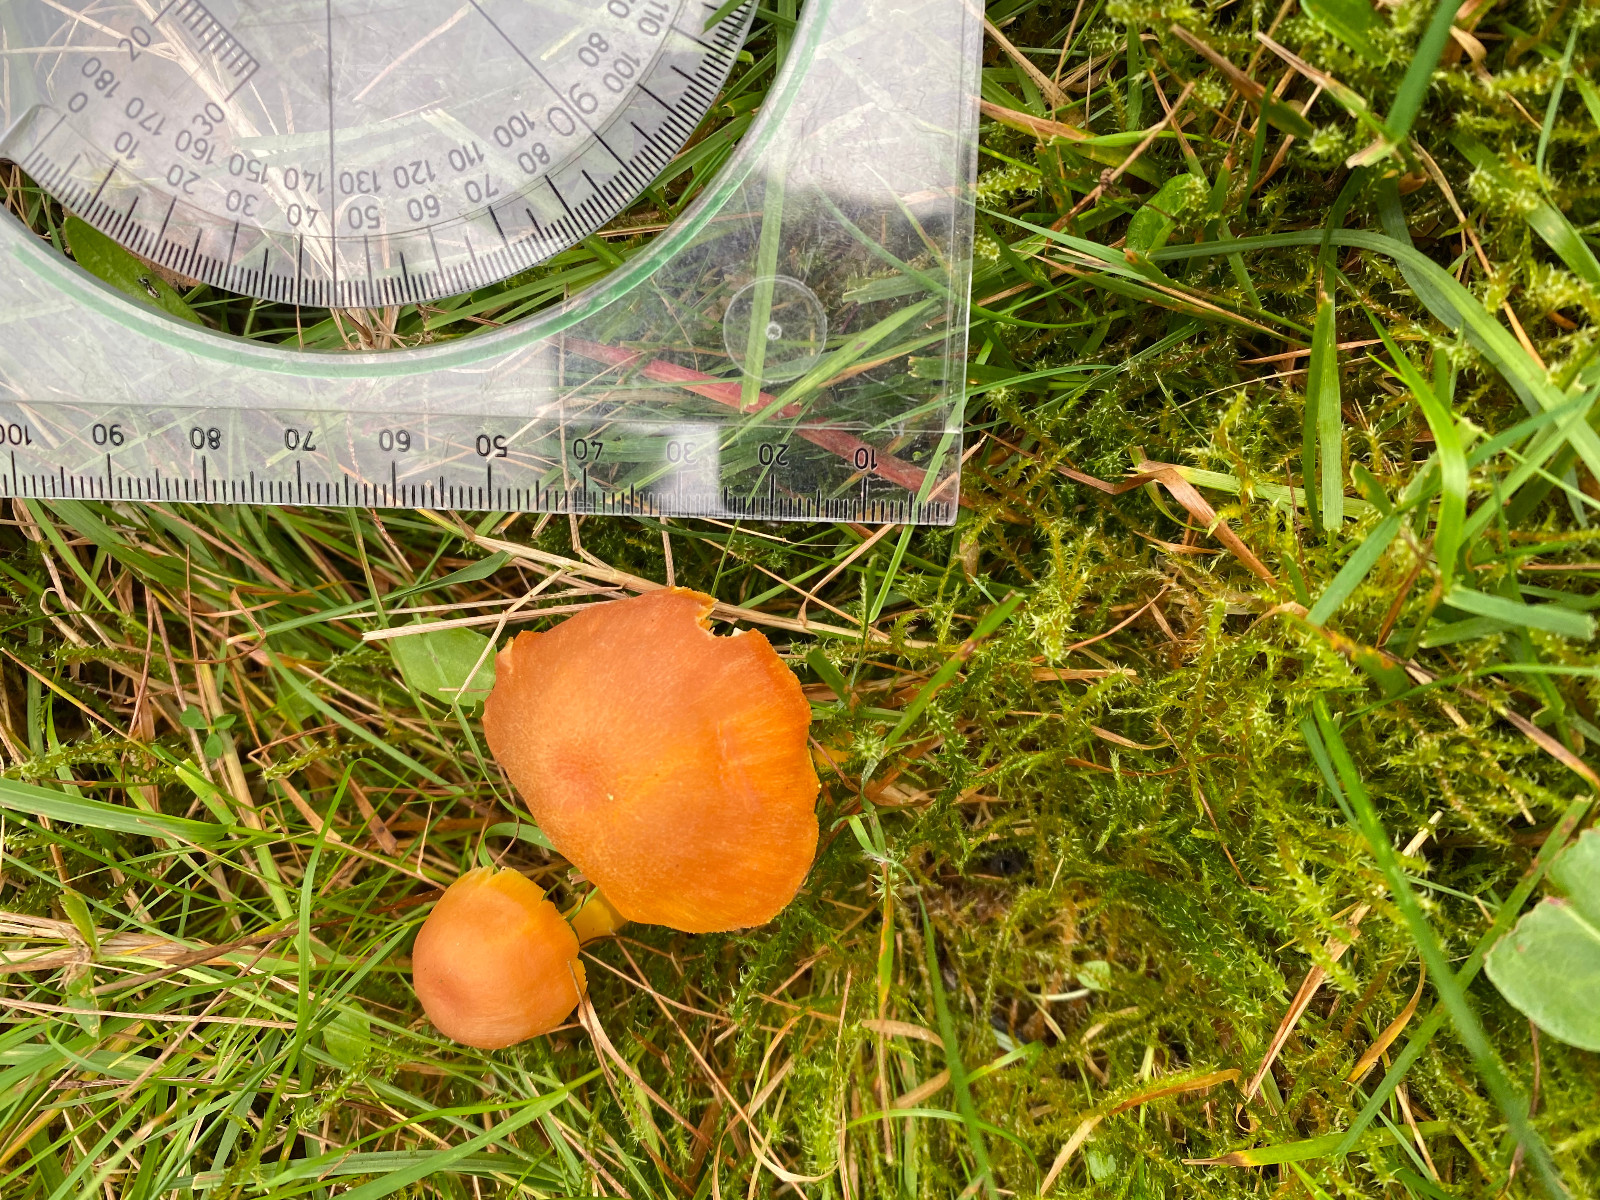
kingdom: Fungi
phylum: Basidiomycota
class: Agaricomycetes
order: Agaricales
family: Hygrophoraceae
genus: Hygrocybe
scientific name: Hygrocybe miniata
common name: mønje-vokshat
